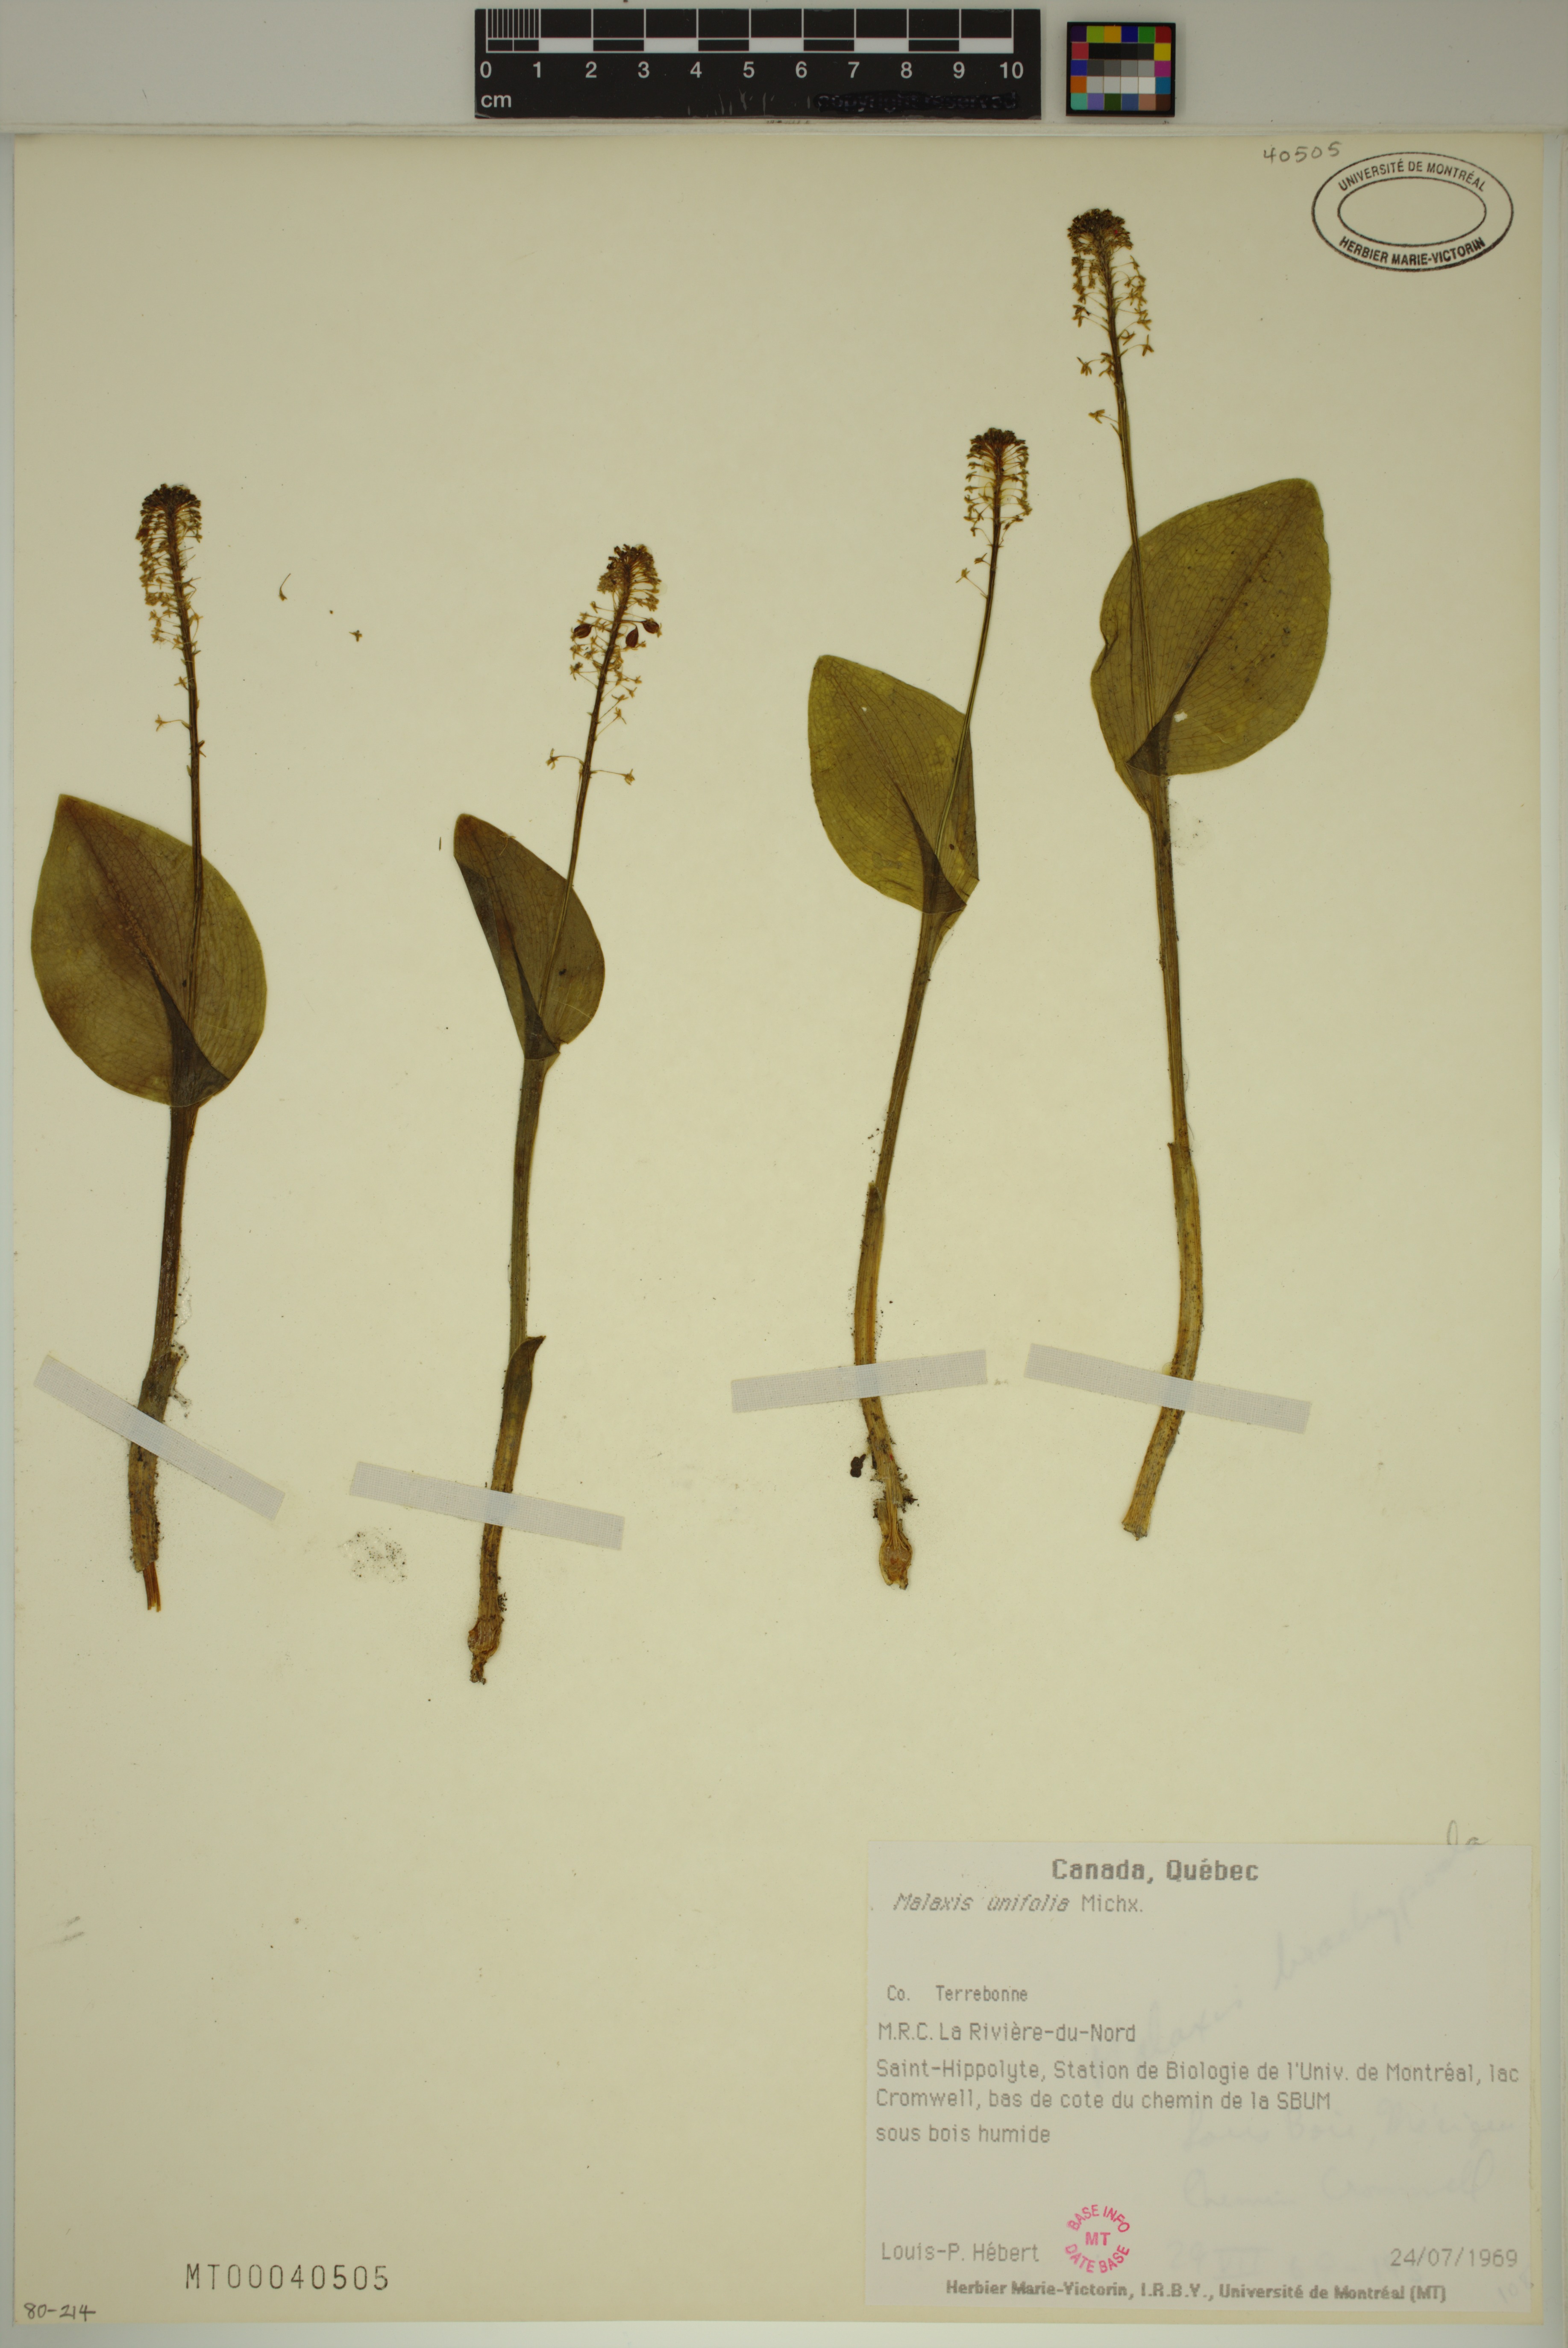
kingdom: Plantae
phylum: Tracheophyta
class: Liliopsida
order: Asparagales
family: Orchidaceae
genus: Malaxis
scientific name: Malaxis unifolia
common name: Green adder's-mouth
